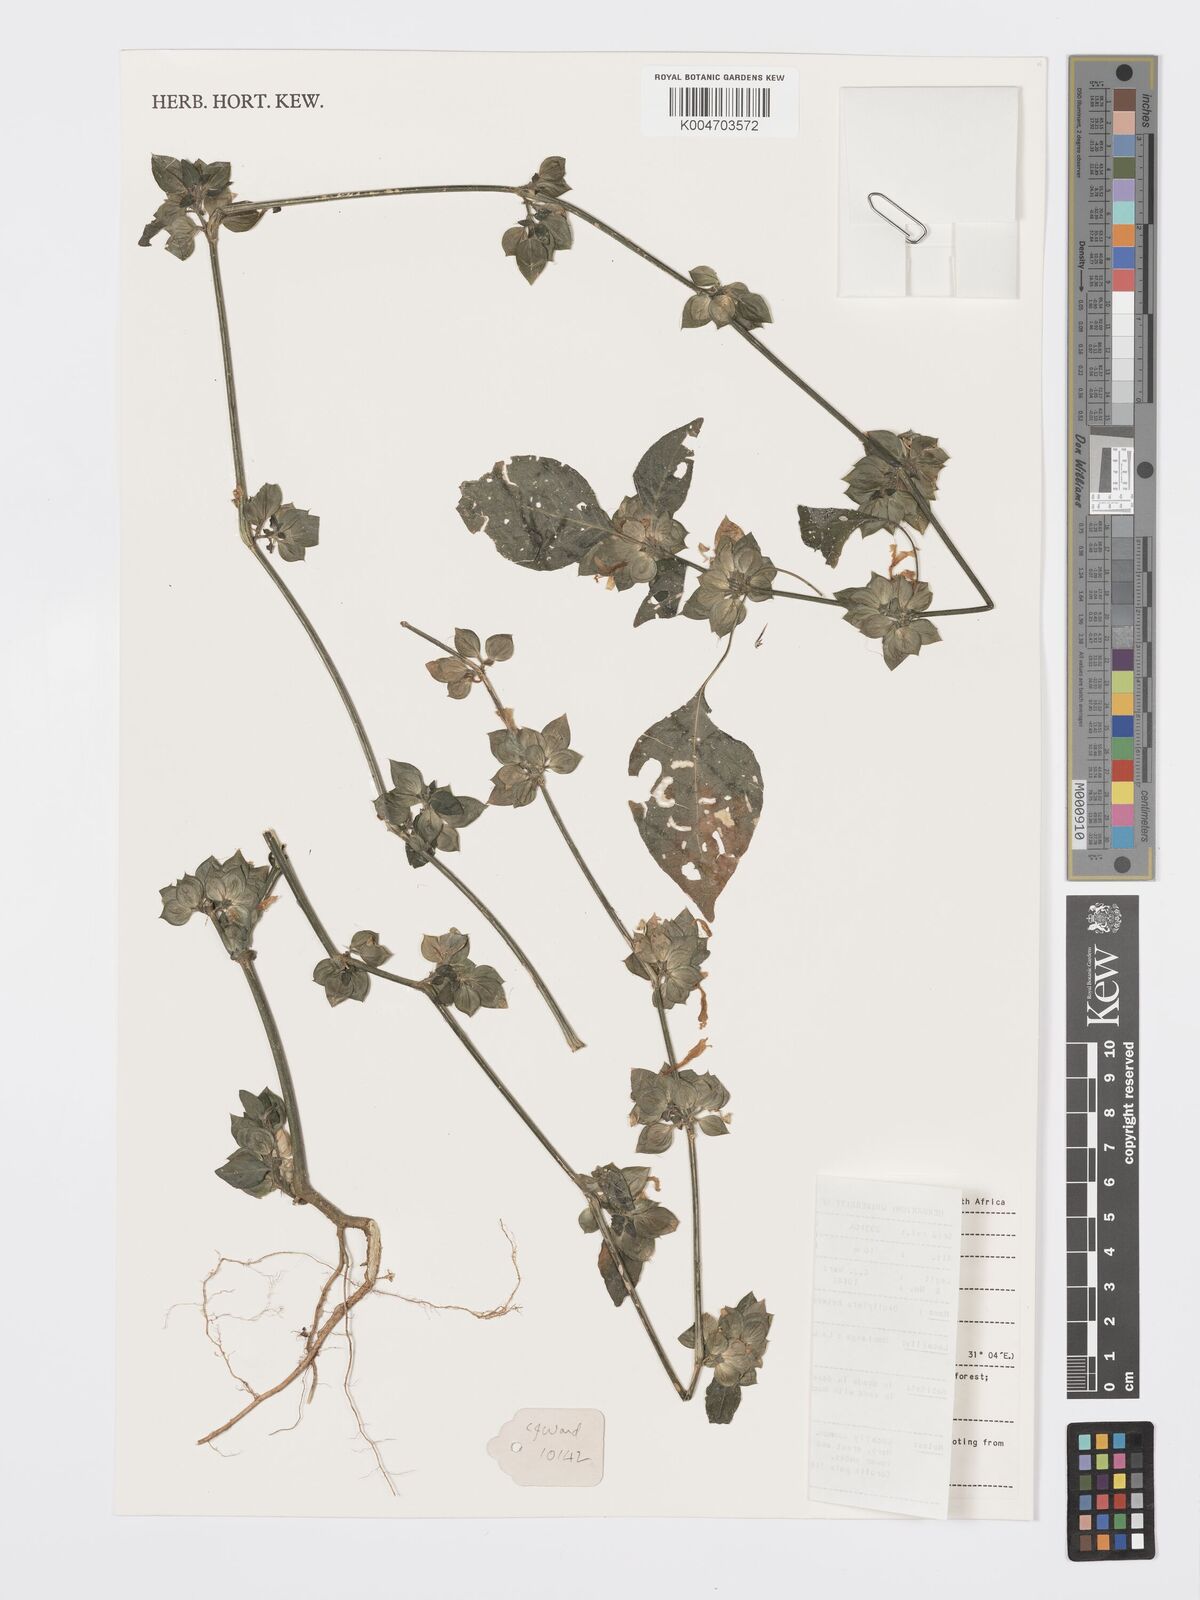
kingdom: Plantae
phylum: Tracheophyta
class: Magnoliopsida
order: Lamiales
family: Acanthaceae
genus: Dicliptera
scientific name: Dicliptera heterostegia
